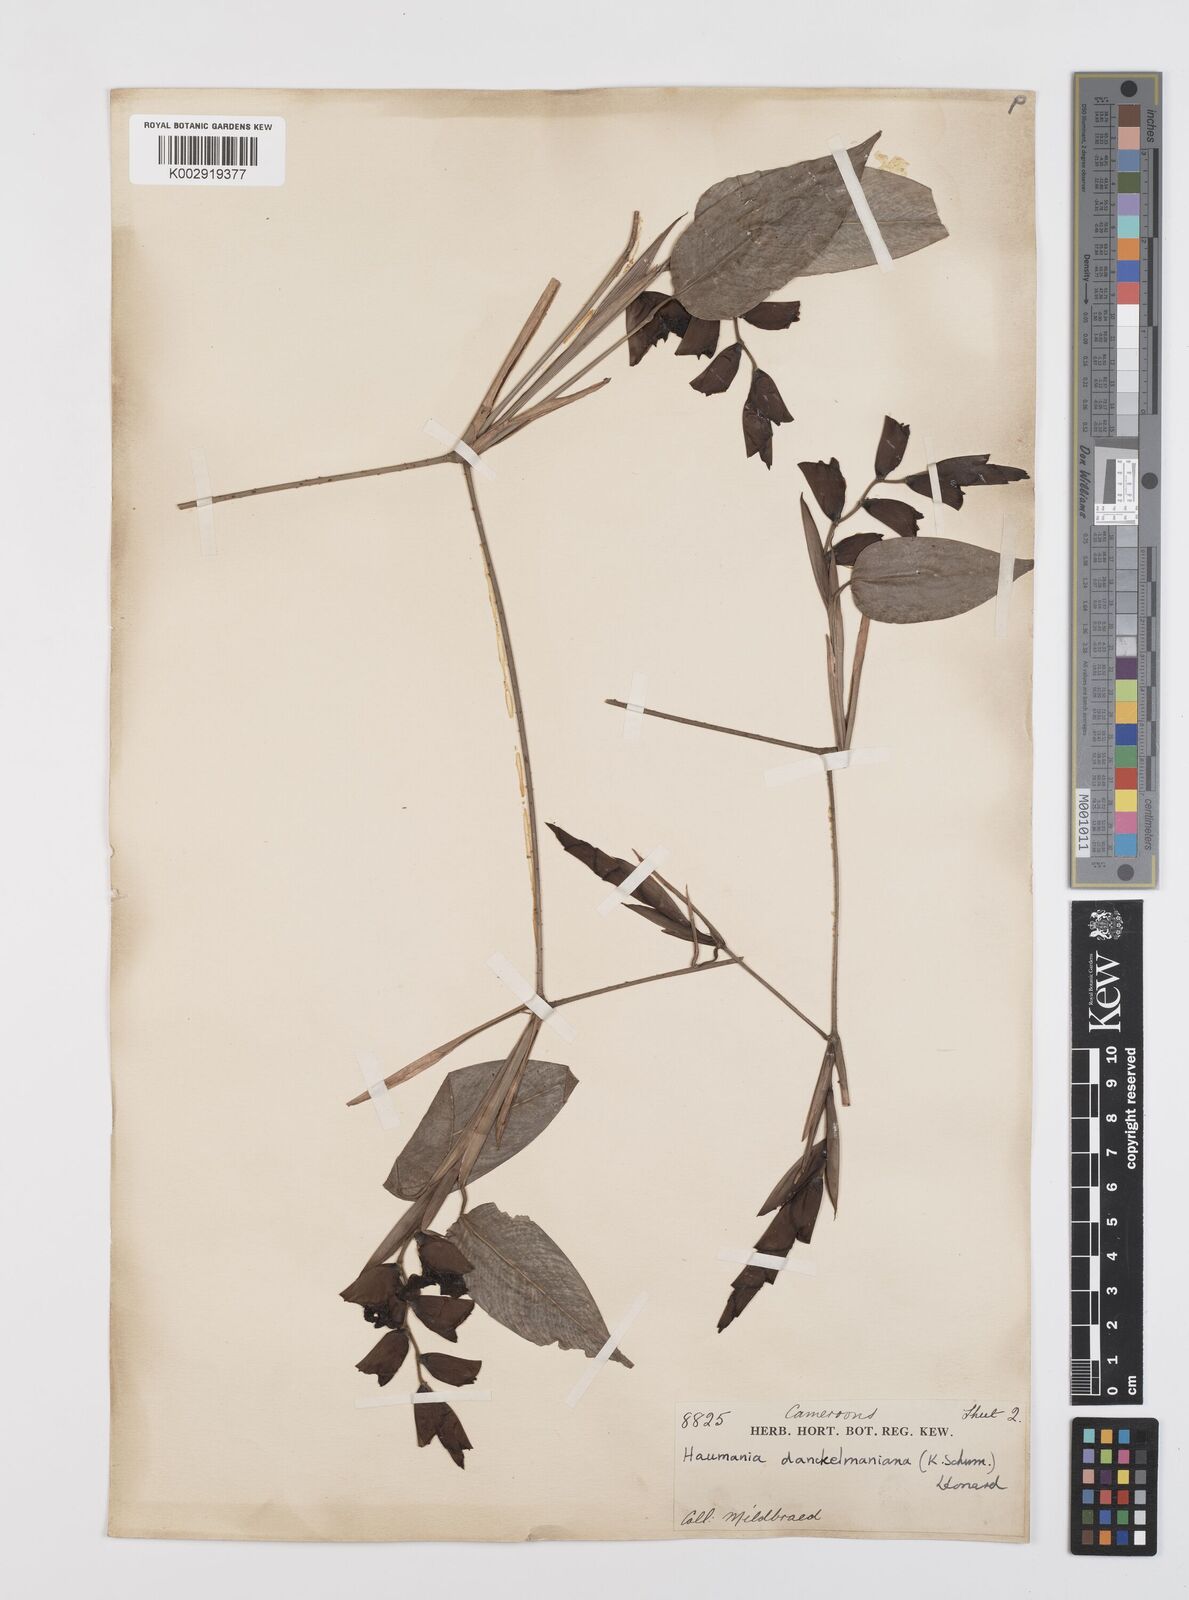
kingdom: Plantae
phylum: Tracheophyta
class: Liliopsida
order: Zingiberales
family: Marantaceae
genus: Haumania
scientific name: Haumania danckelmaniana
